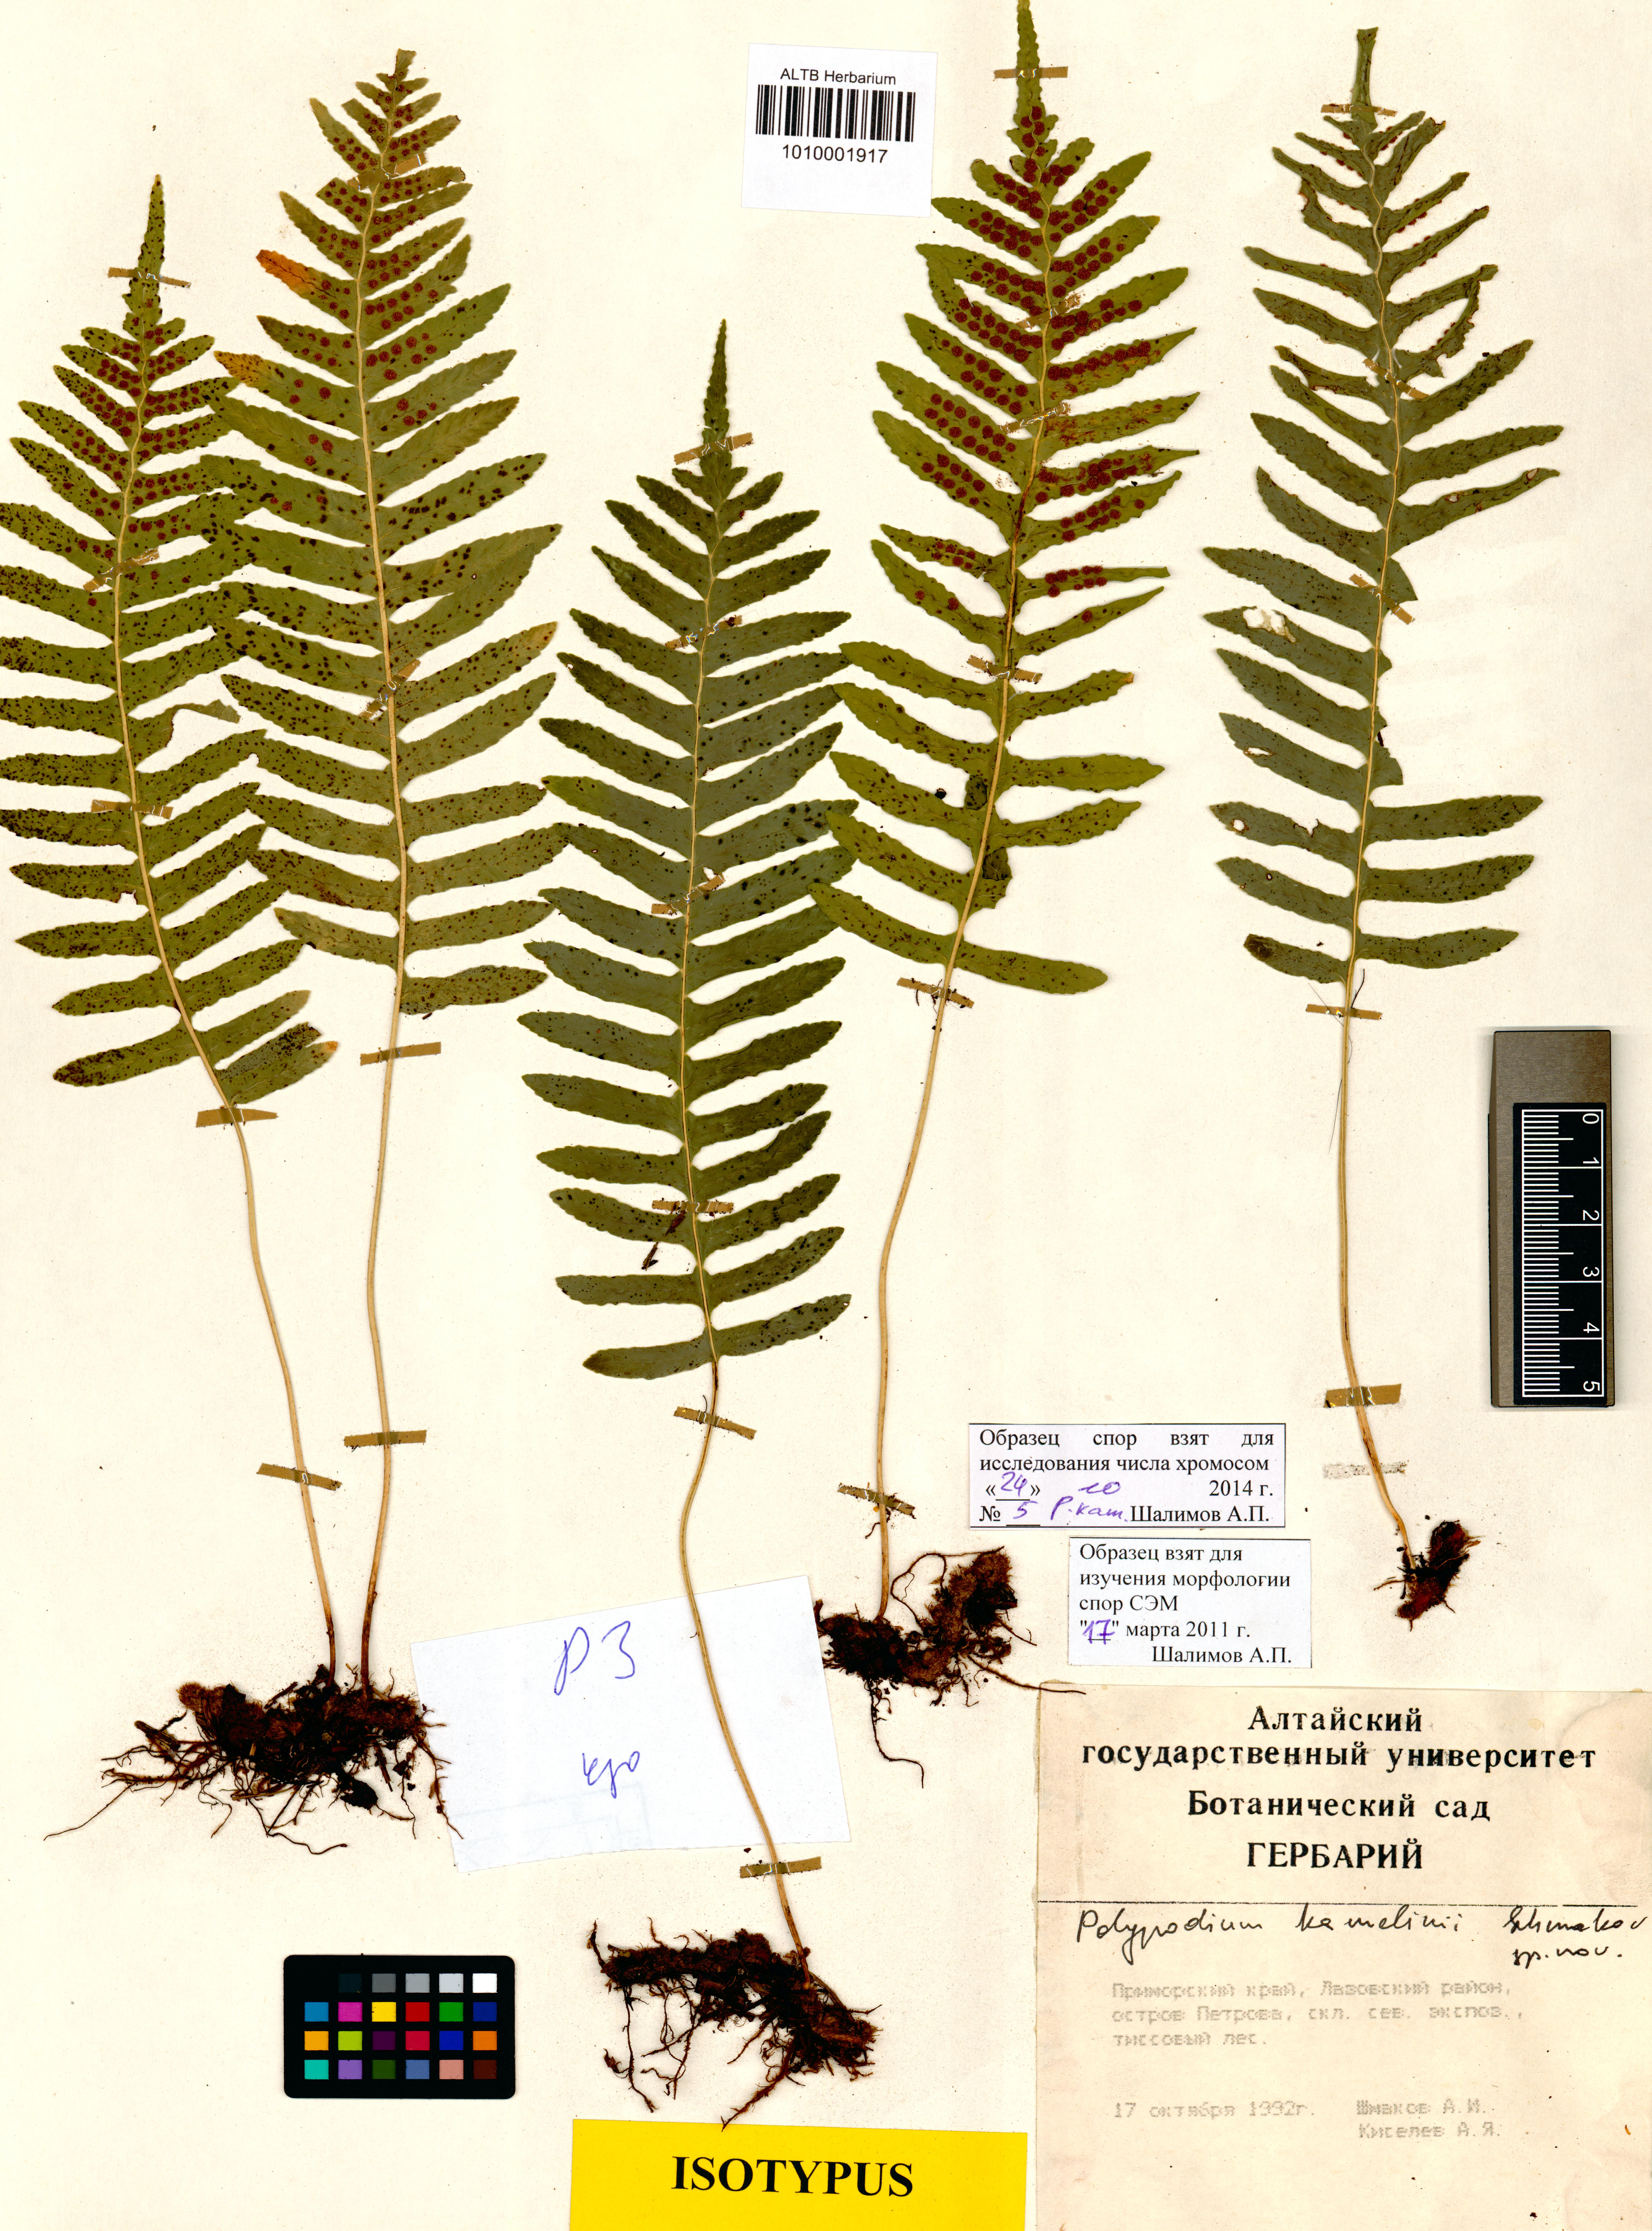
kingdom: Plantae
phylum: Tracheophyta
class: Polypodiopsida
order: Polypodiales
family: Polypodiaceae
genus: Polypodium
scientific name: Polypodium kamelinii
